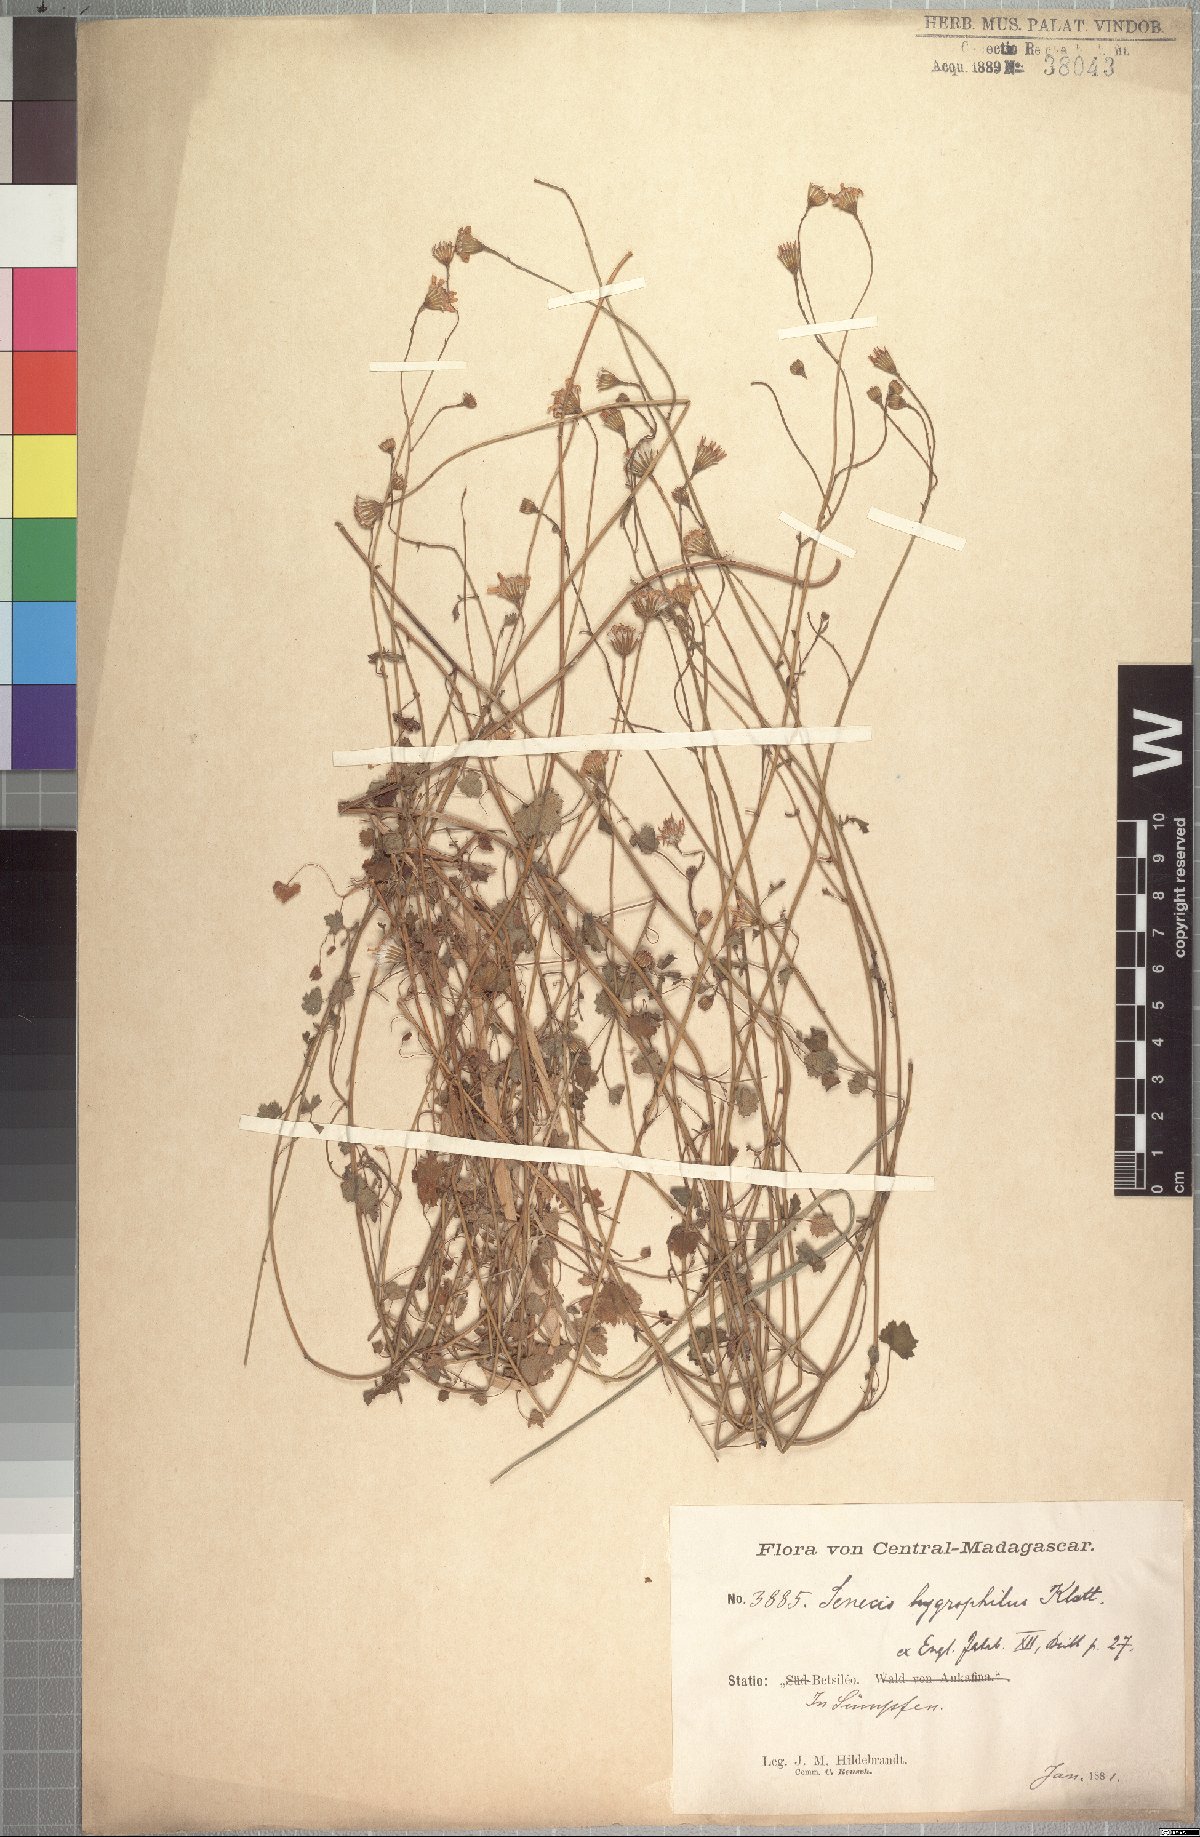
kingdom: Plantae
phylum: Tracheophyta
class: Magnoliopsida
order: Asterales
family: Asteraceae
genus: Cineraria
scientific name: Cineraria anampoza
